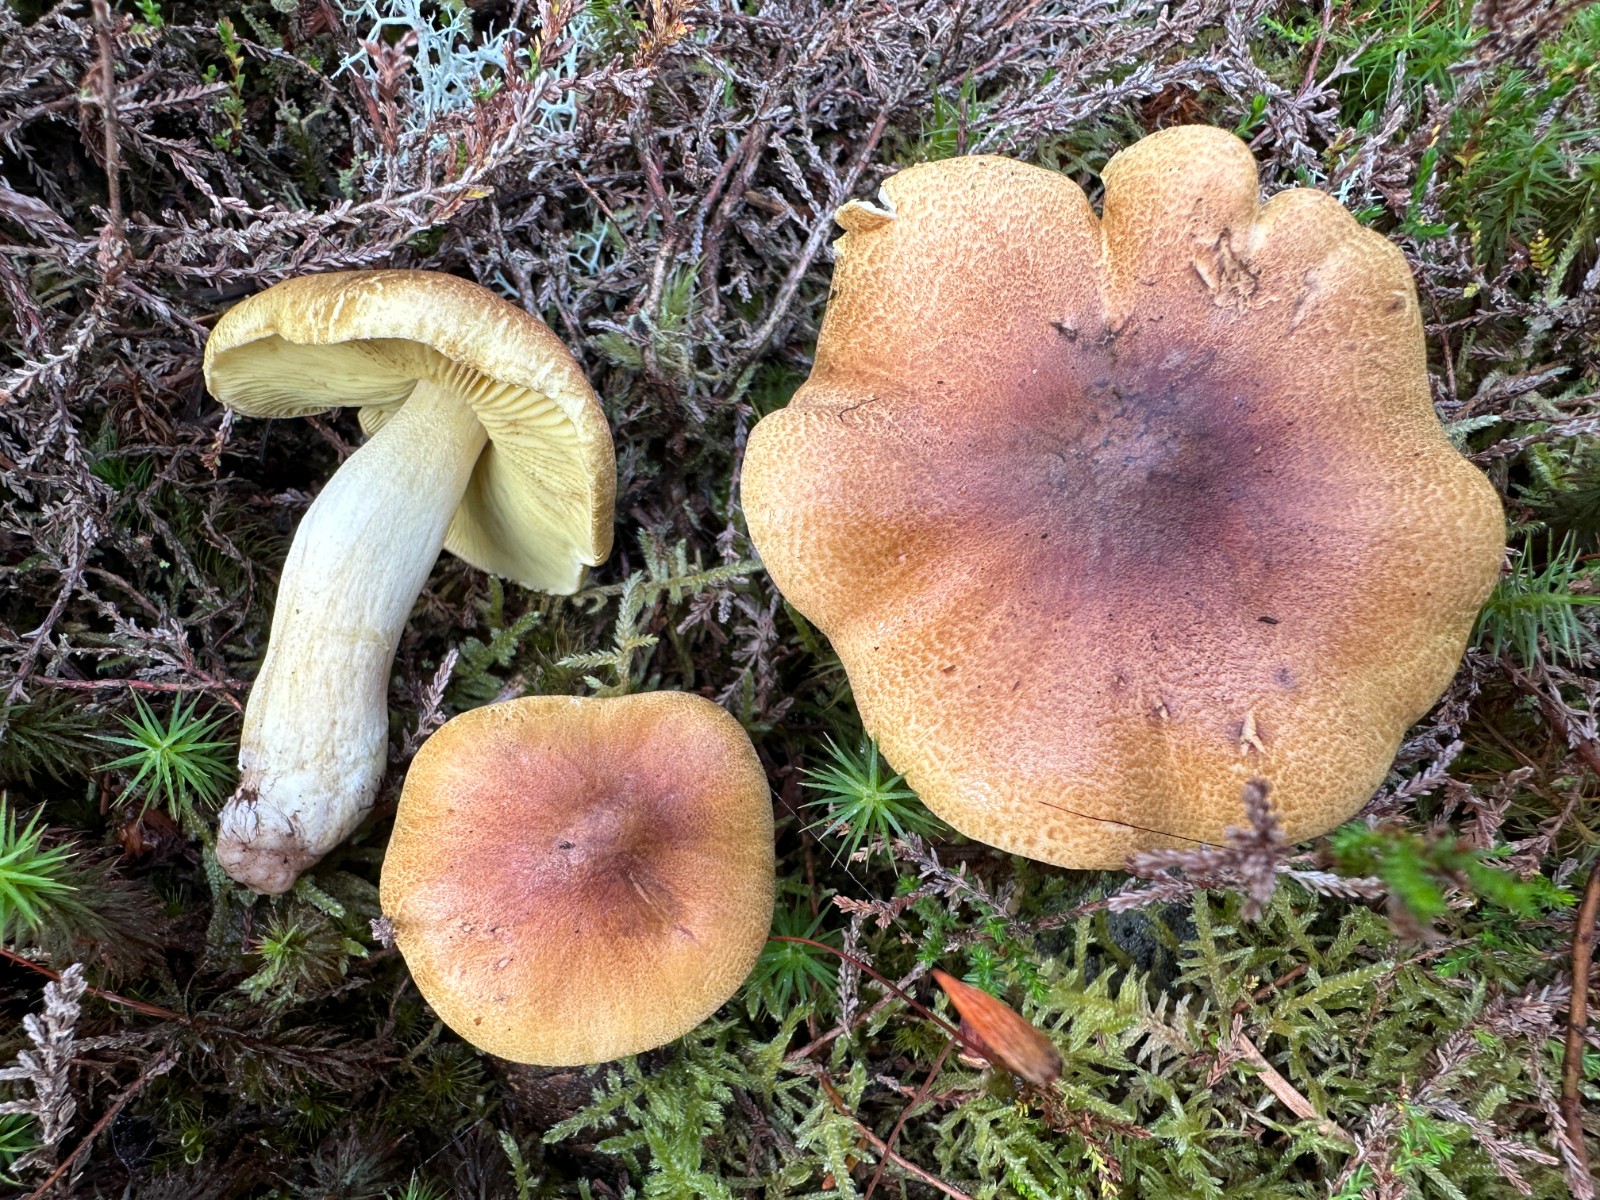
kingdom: Fungi
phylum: Basidiomycota
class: Agaricomycetes
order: Agaricales
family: Tricholomataceae
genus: Tricholoma
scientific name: Tricholoma aestuans
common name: kegle-ridderhat
